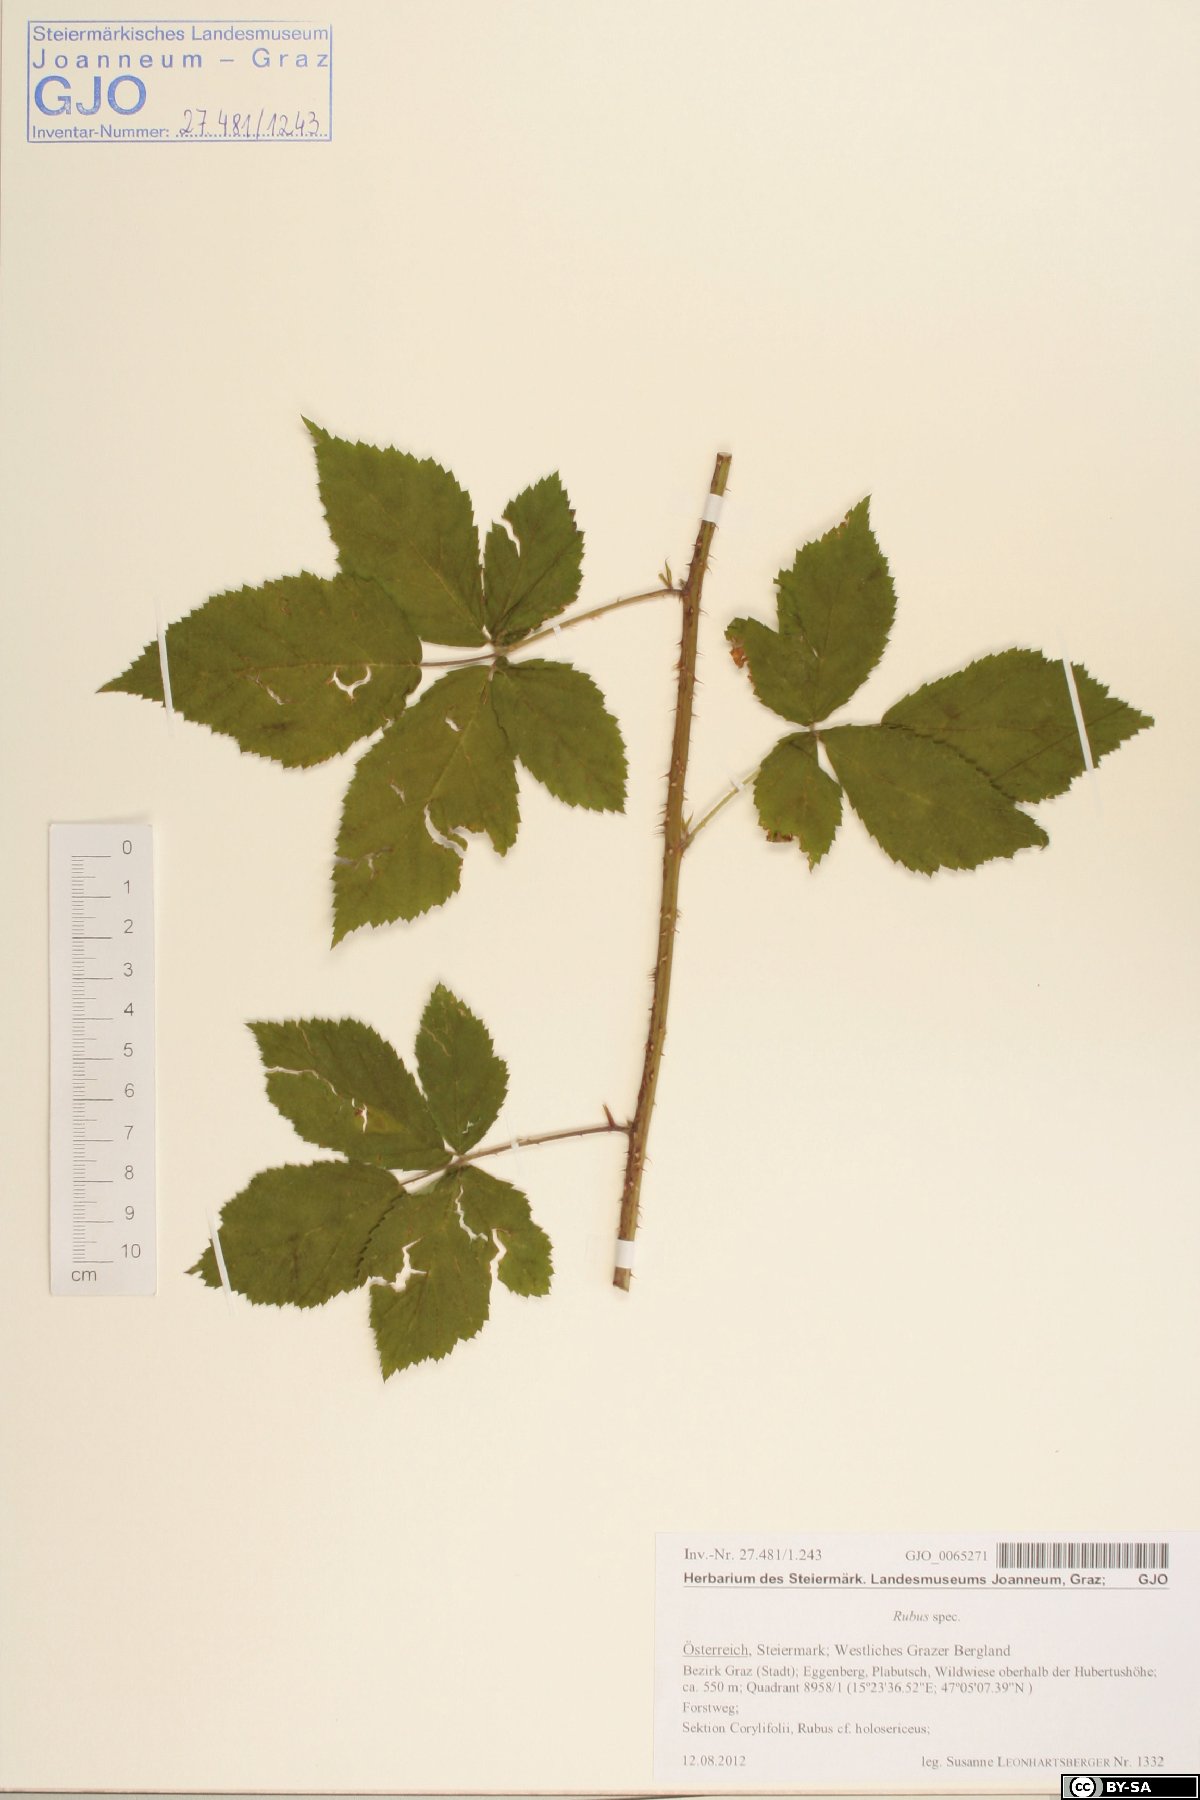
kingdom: Plantae
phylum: Tracheophyta
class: Magnoliopsida
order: Rosales
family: Rosaceae
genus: Rubus
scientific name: Rubus
